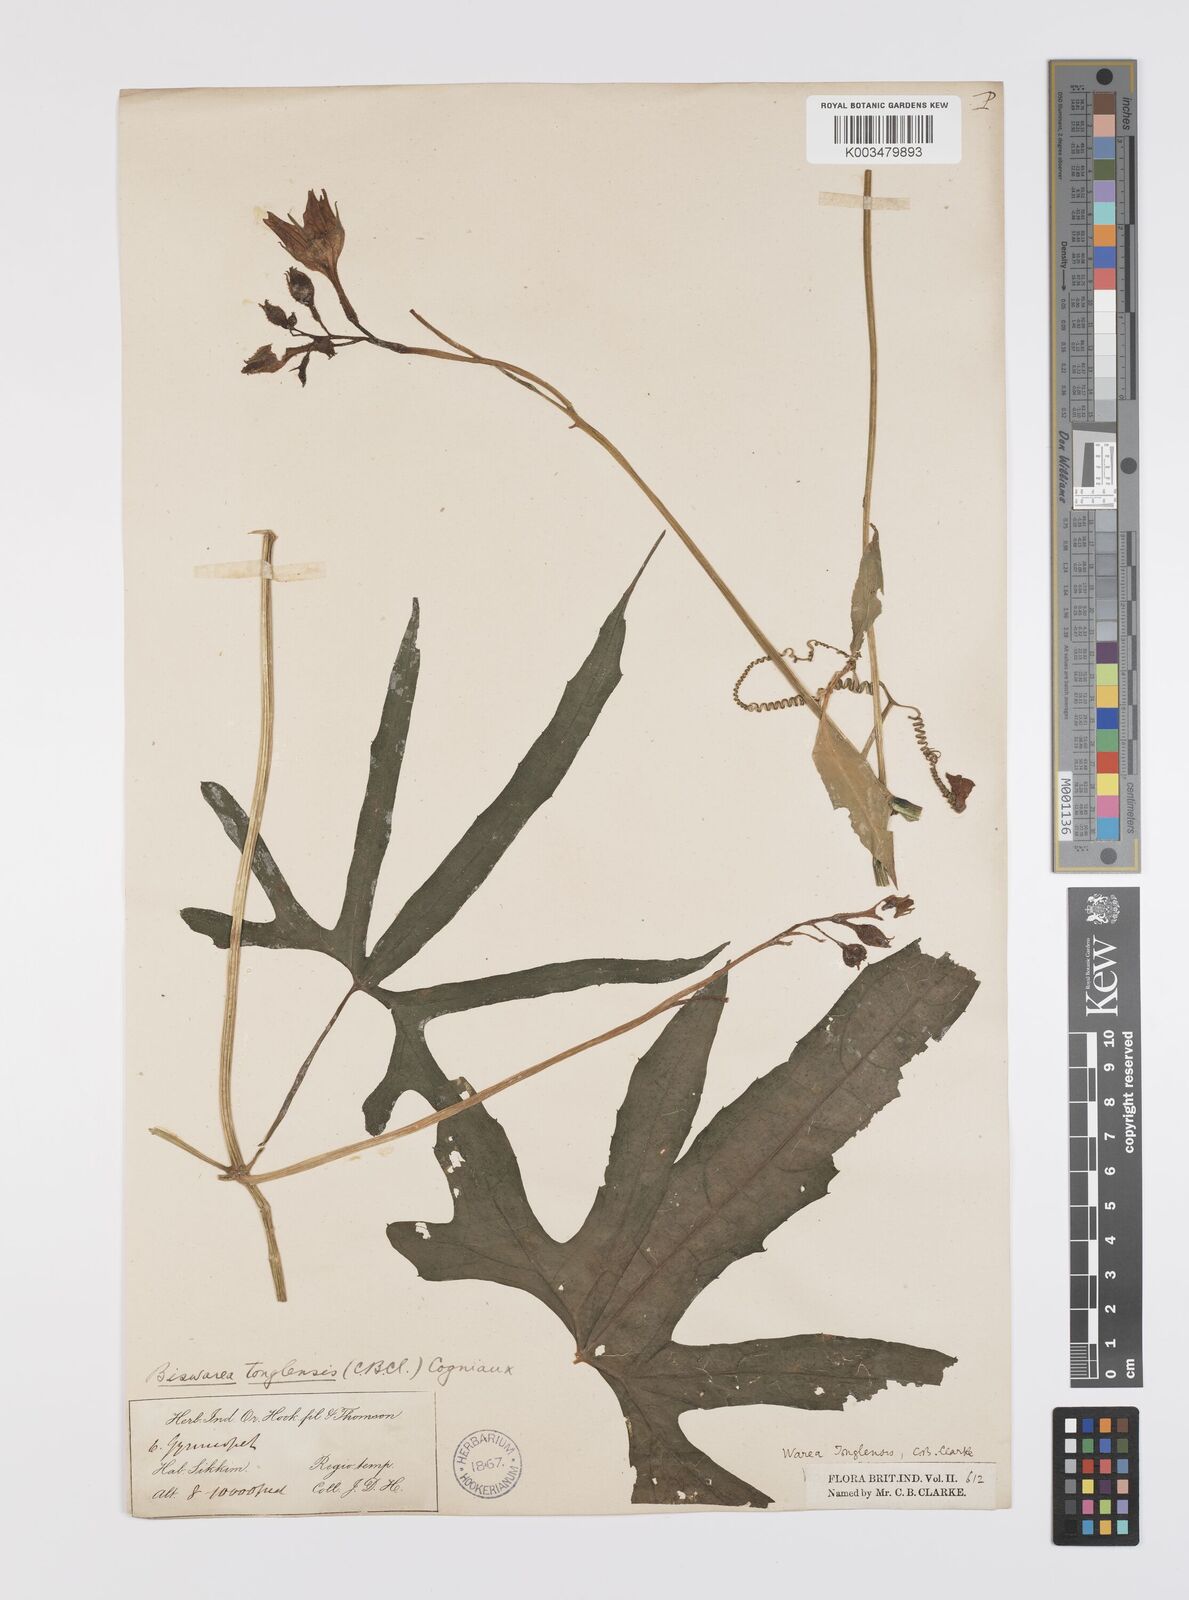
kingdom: Plantae
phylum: Tracheophyta
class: Magnoliopsida
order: Cucurbitales
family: Cucurbitaceae
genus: Benincasa
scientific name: Benincasa
